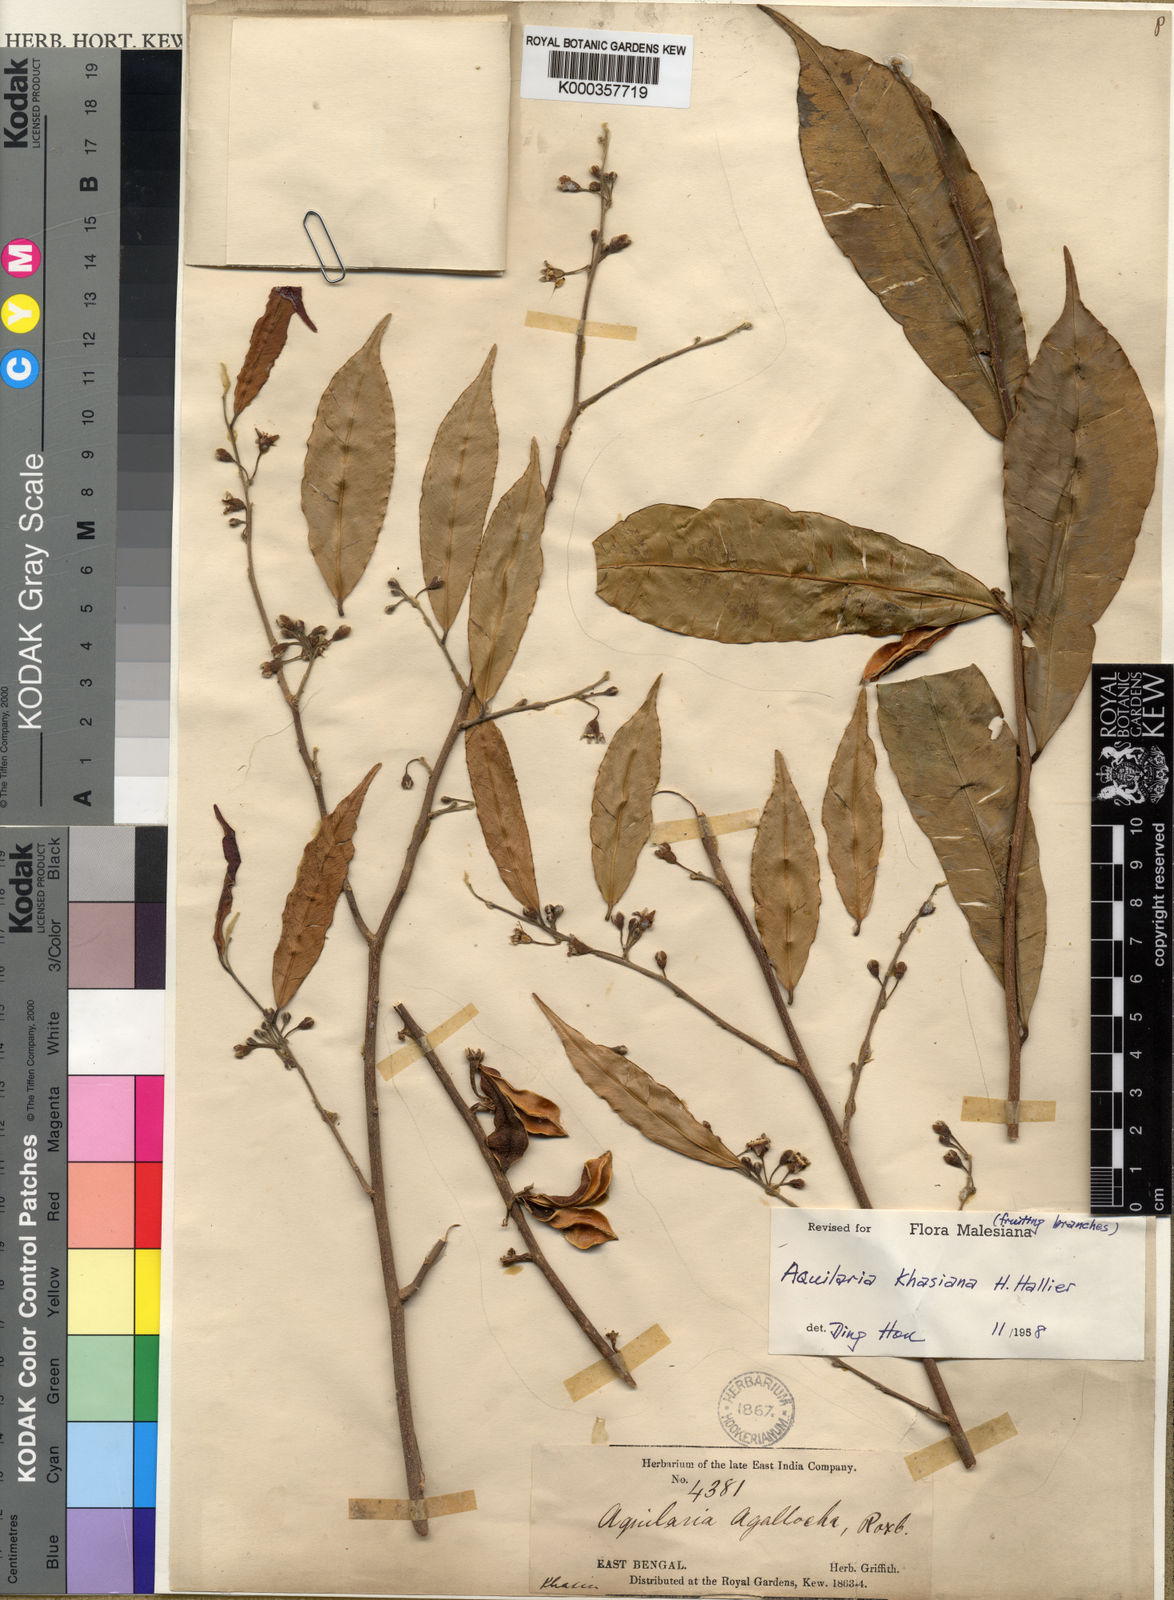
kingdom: Plantae
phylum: Tracheophyta
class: Magnoliopsida
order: Malvales
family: Thymelaeaceae
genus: Aquilaria
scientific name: Aquilaria khasiana
